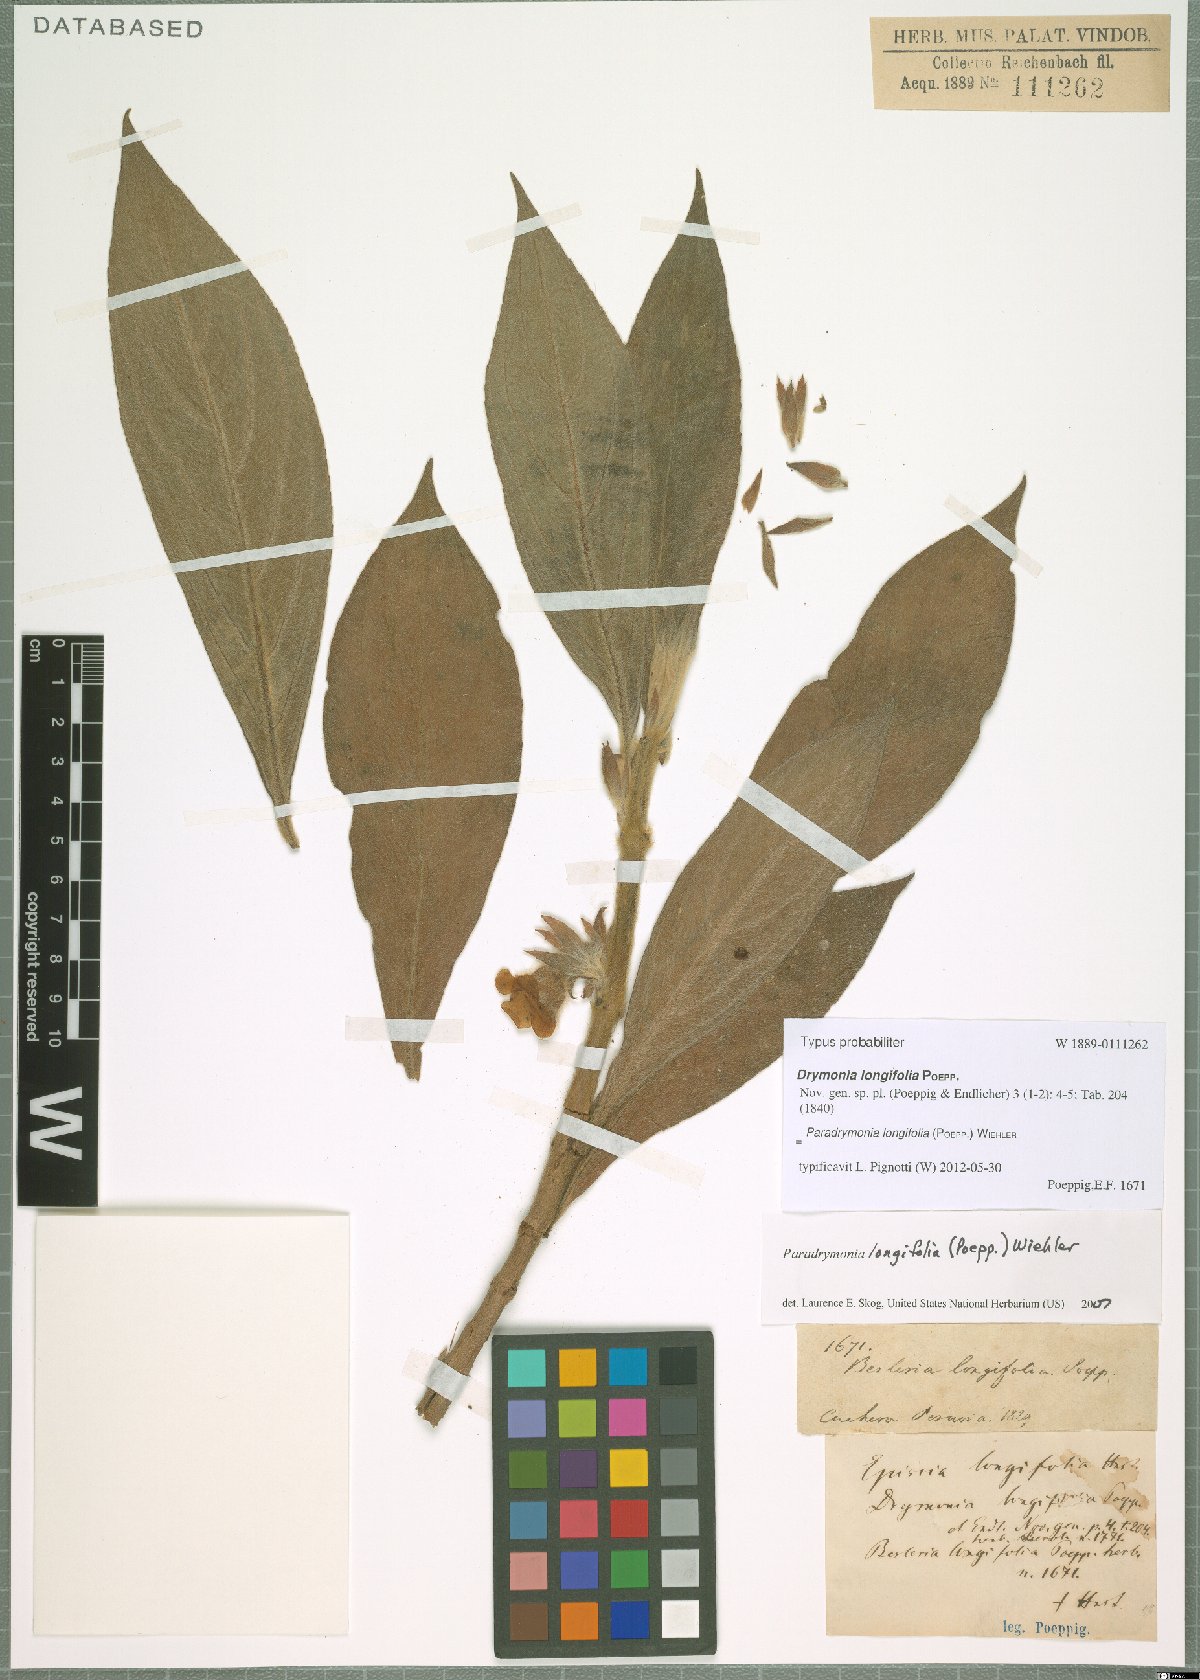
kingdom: Plantae
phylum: Tracheophyta
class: Magnoliopsida
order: Lamiales
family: Gesneriaceae
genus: Paradrymonia
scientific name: Paradrymonia longifolia
